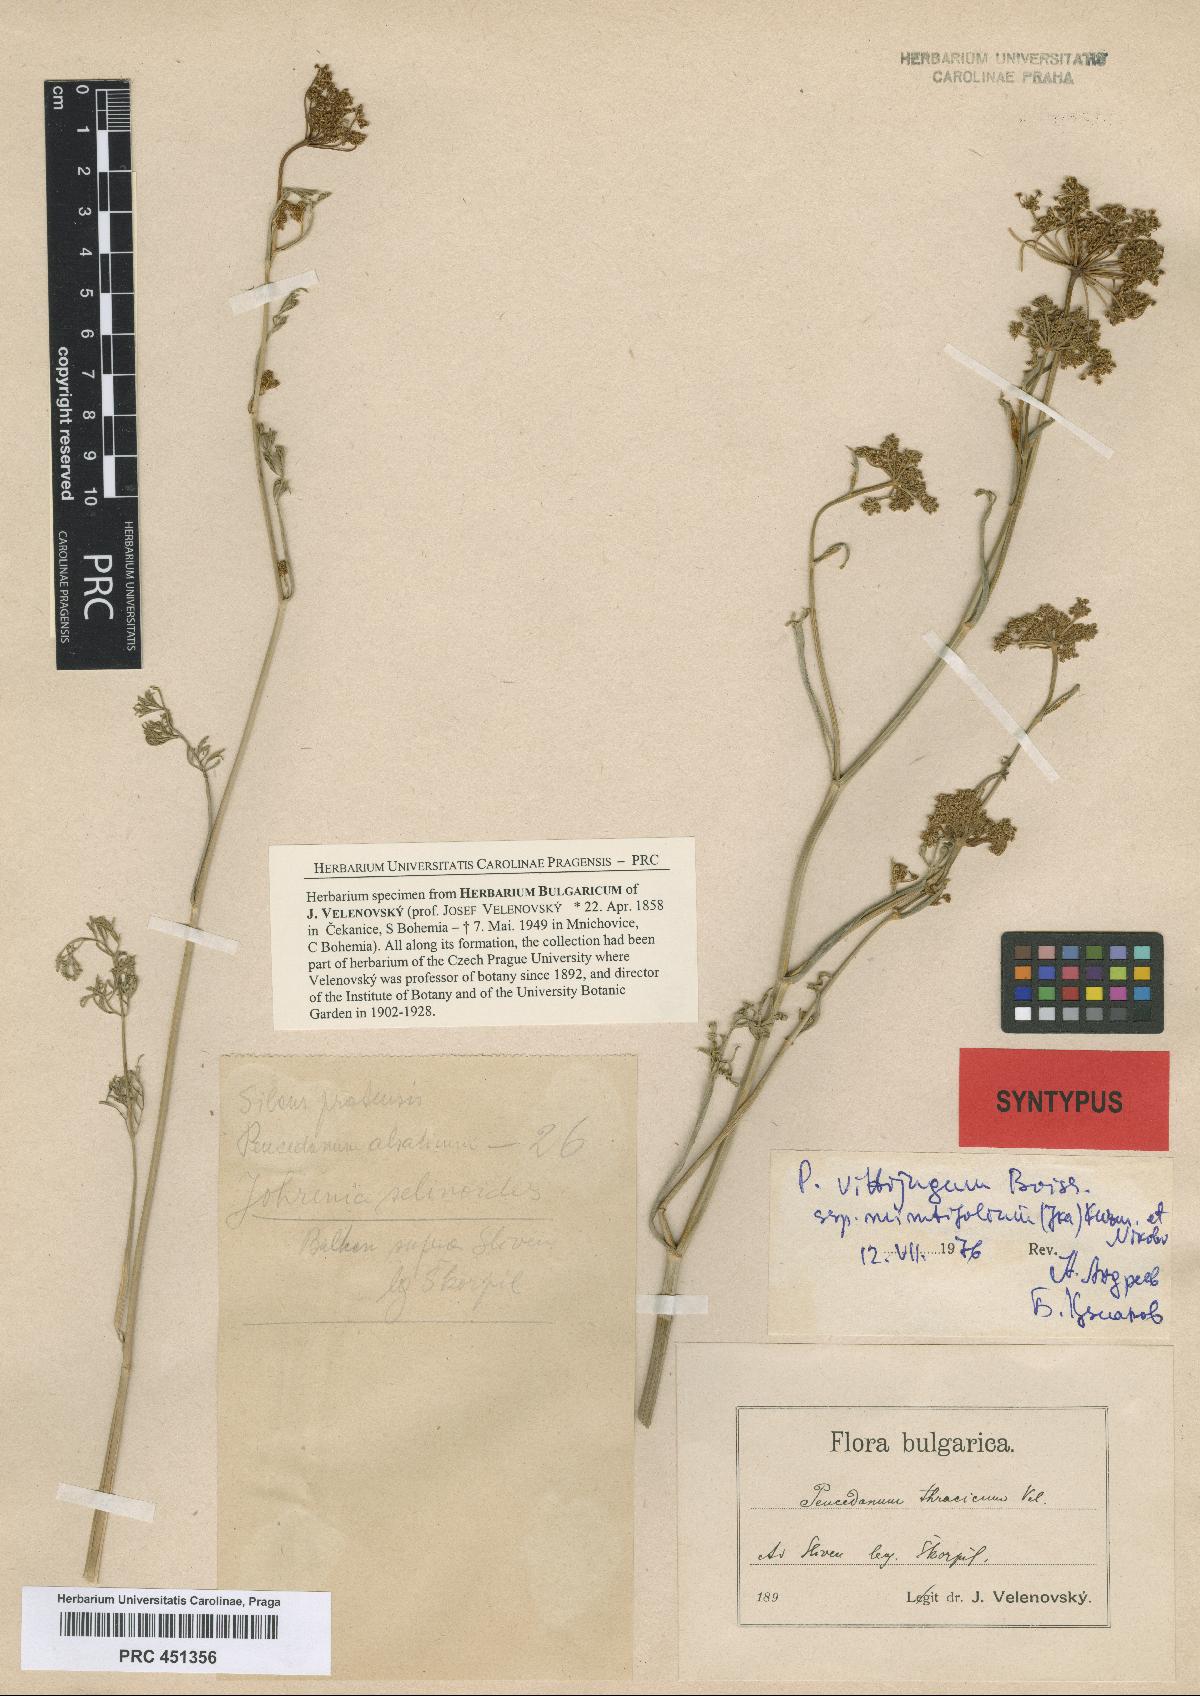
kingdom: Plantae
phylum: Tracheophyta
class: Magnoliopsida
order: Apiales
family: Apiaceae
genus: Dichoropetalum
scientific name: Dichoropetalum vittijugum
